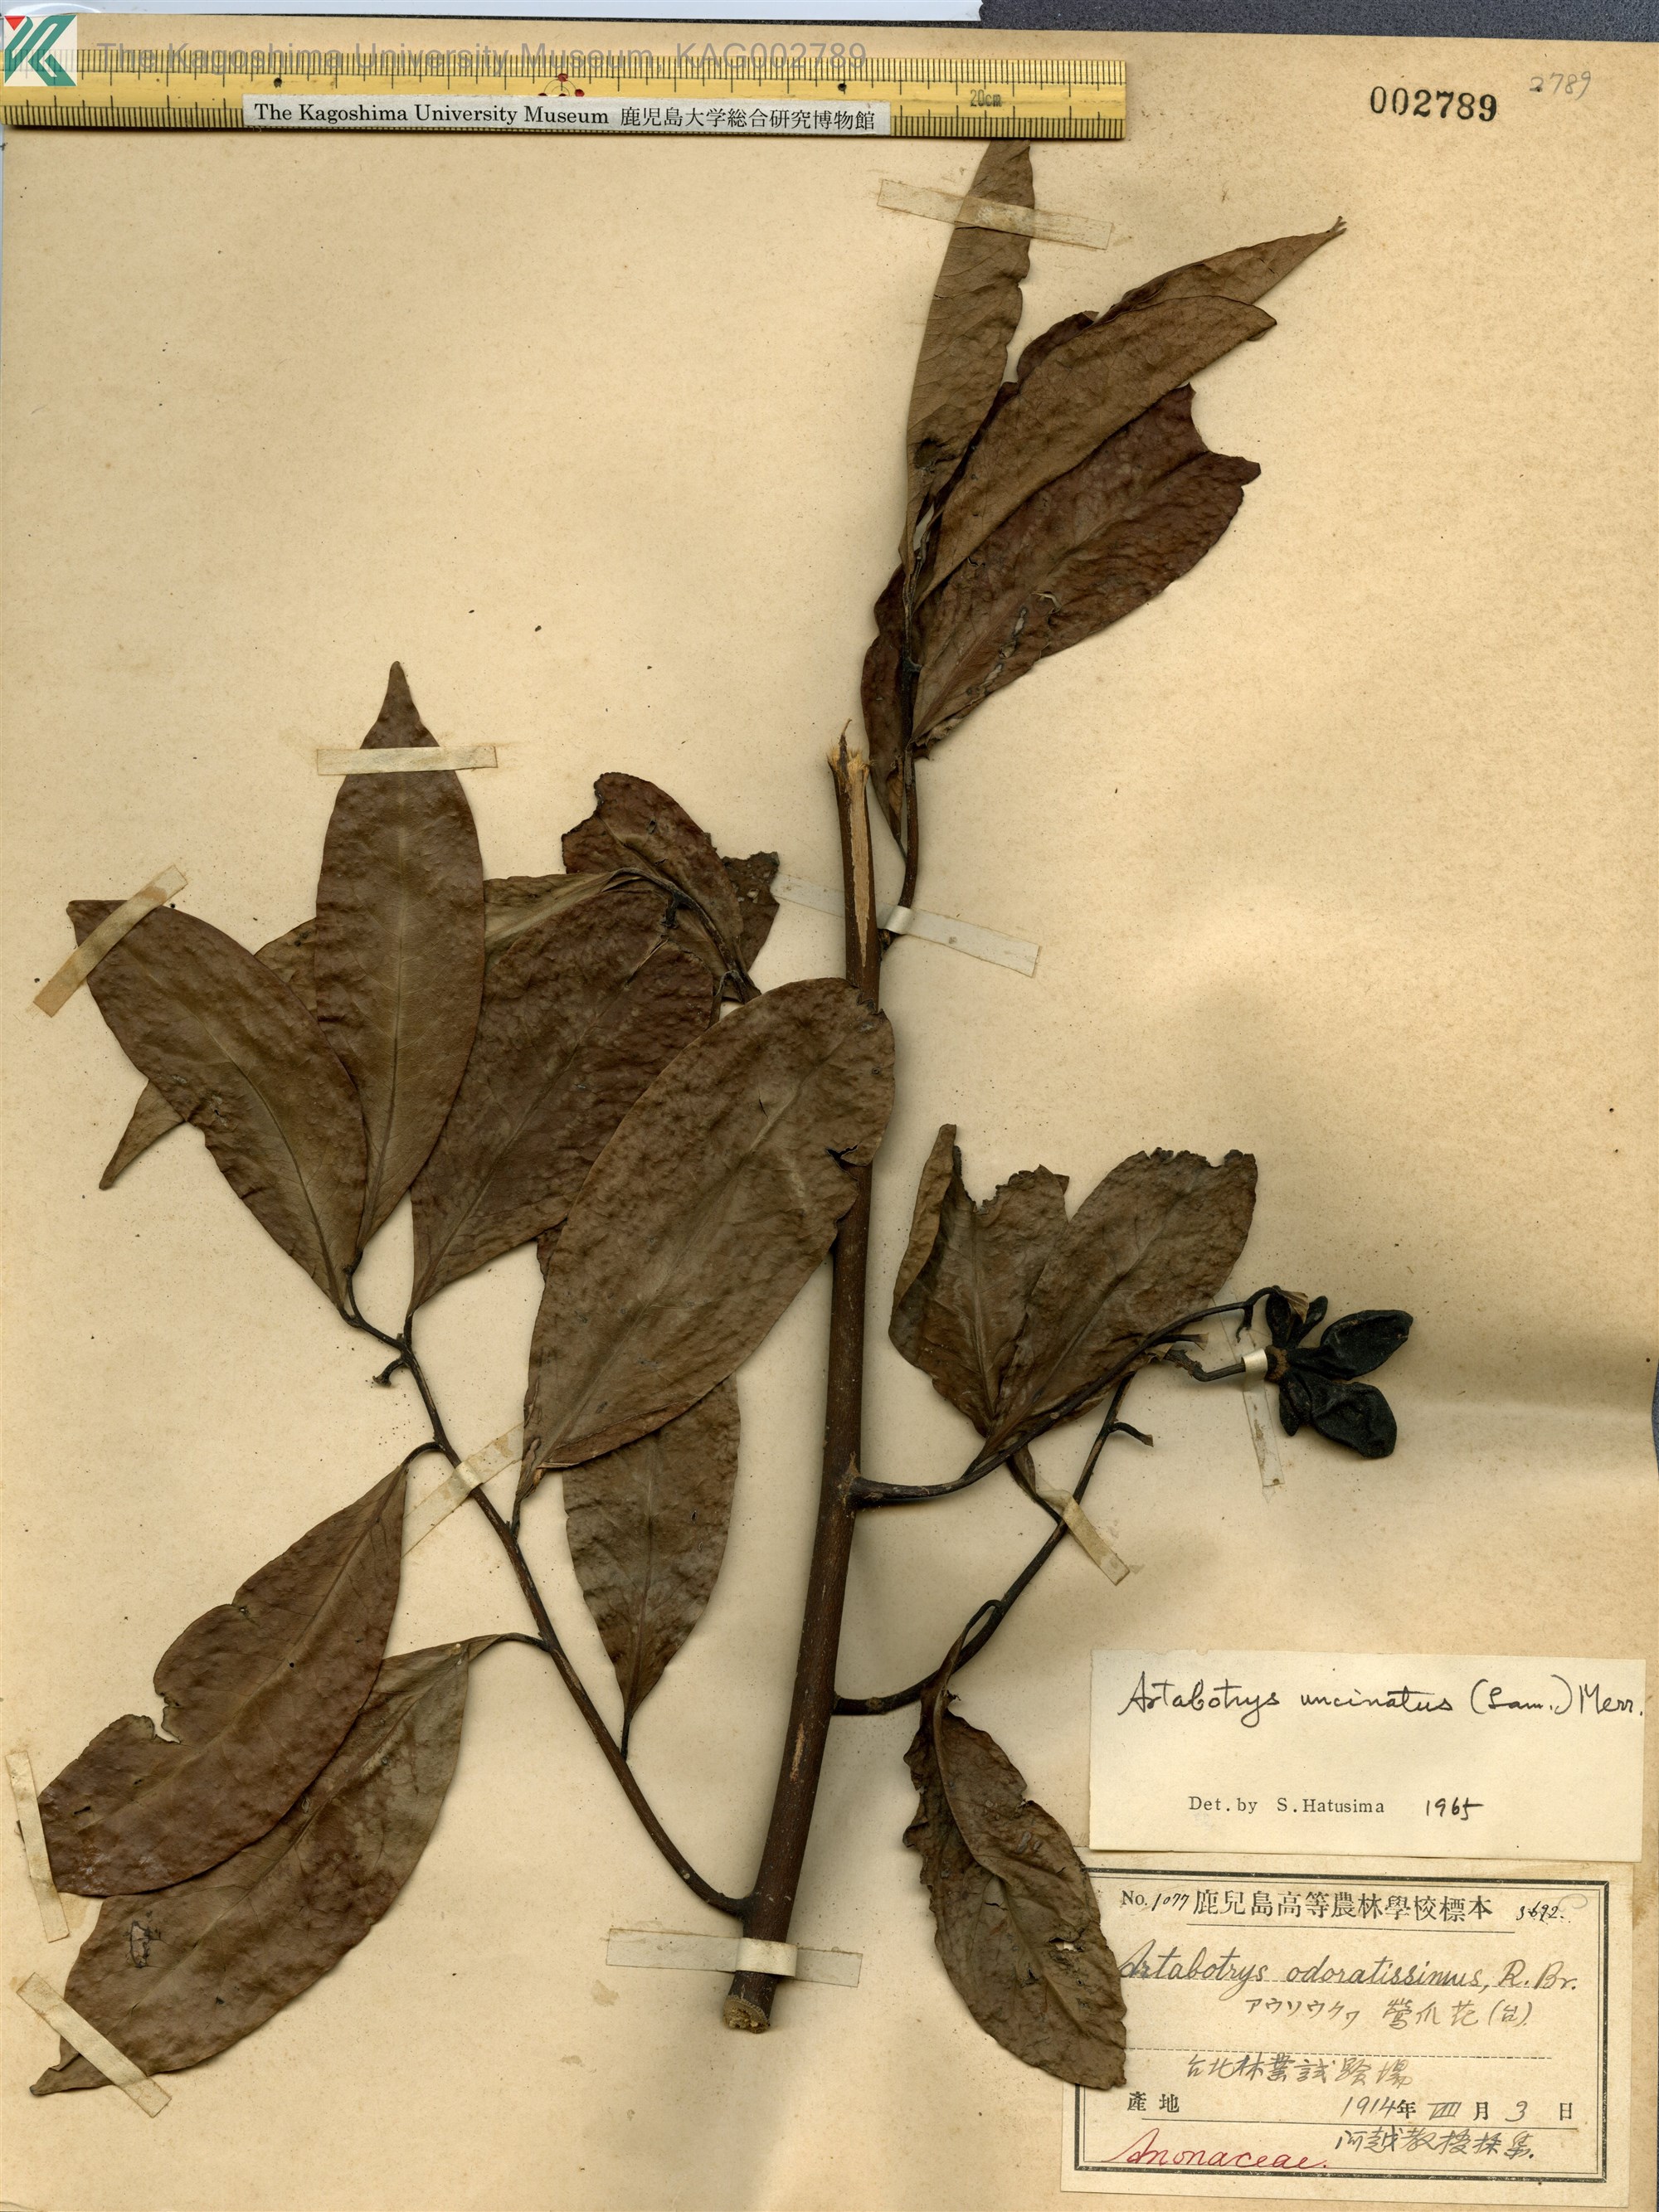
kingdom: Plantae
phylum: Tracheophyta
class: Magnoliopsida
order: Magnoliales
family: Annonaceae
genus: Artabotrys
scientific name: Artabotrys hexapetalus
